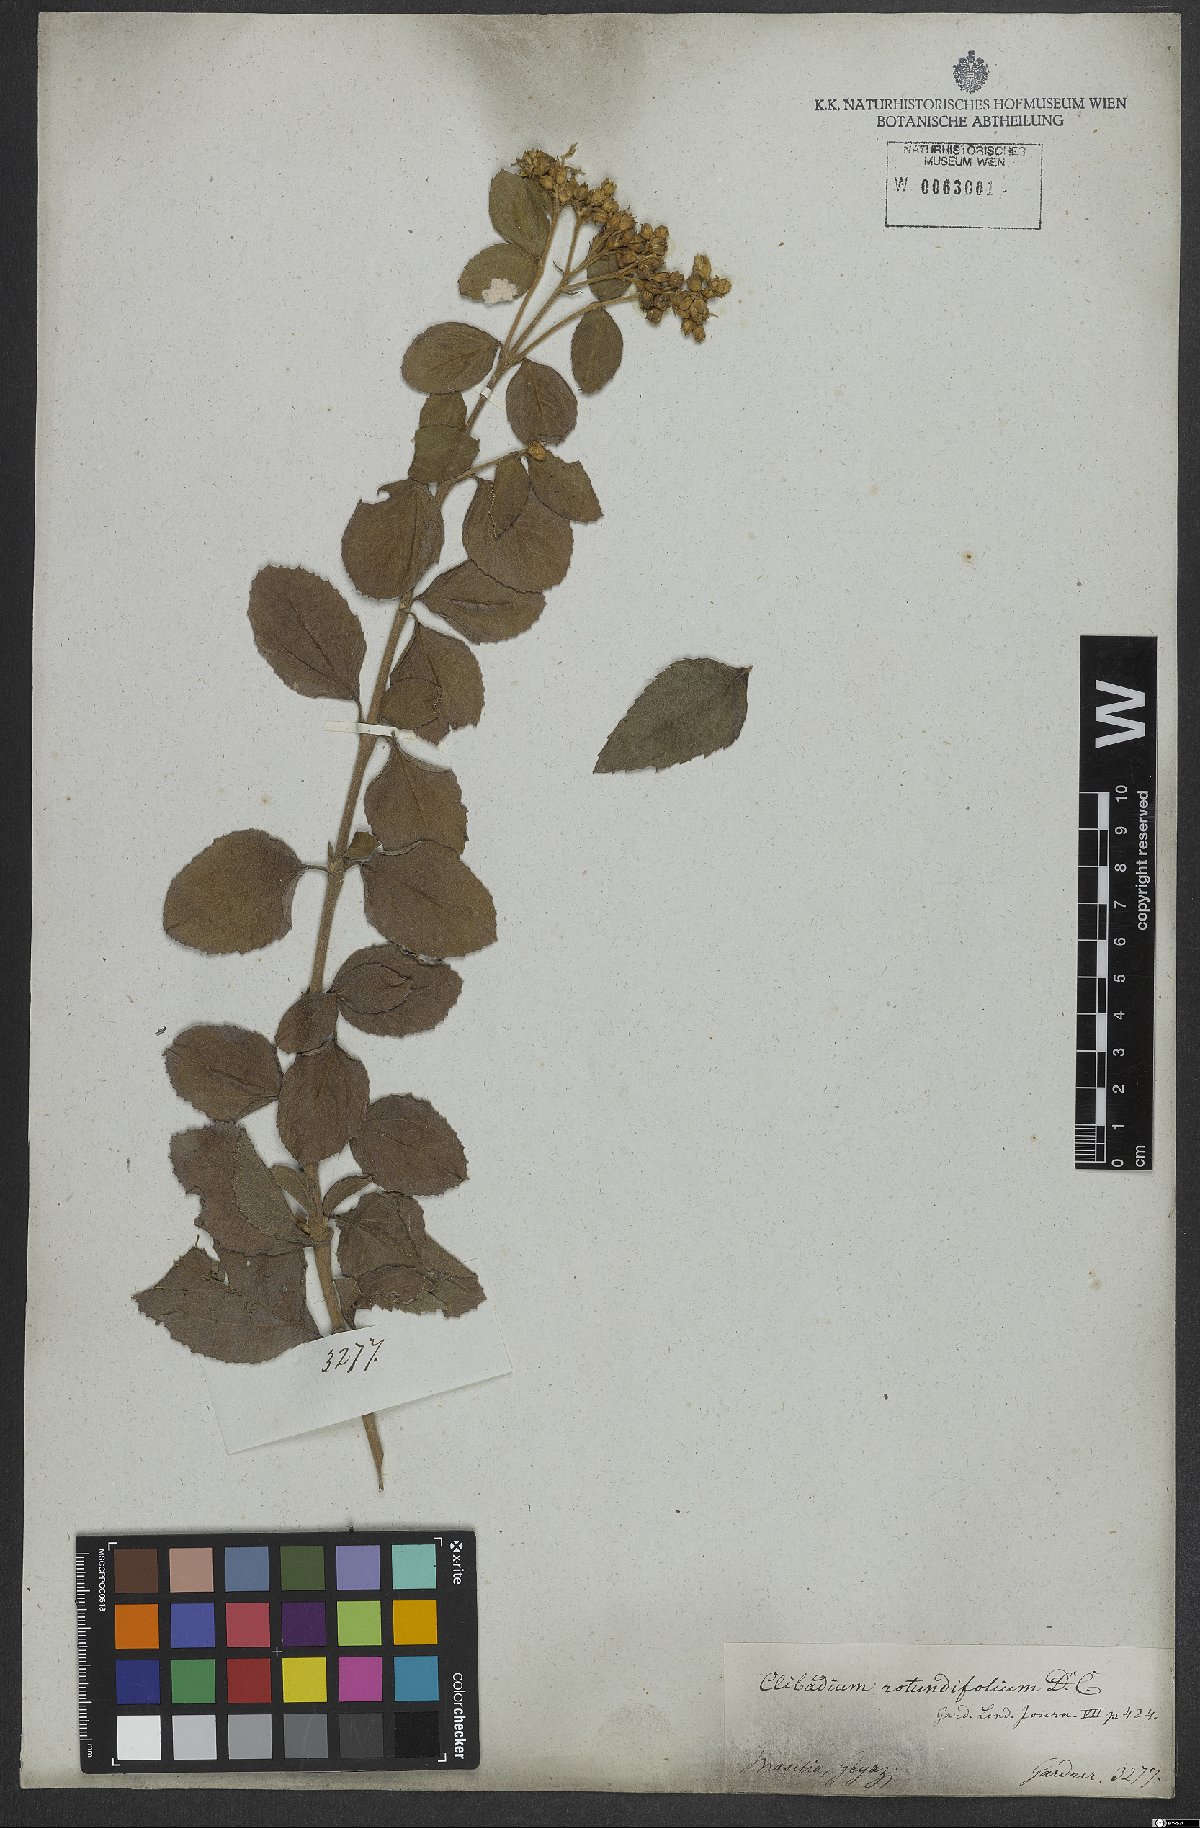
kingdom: Plantae
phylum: Tracheophyta
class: Magnoliopsida
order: Asterales
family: Asteraceae
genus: Clibadium
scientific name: Clibadium armanii
